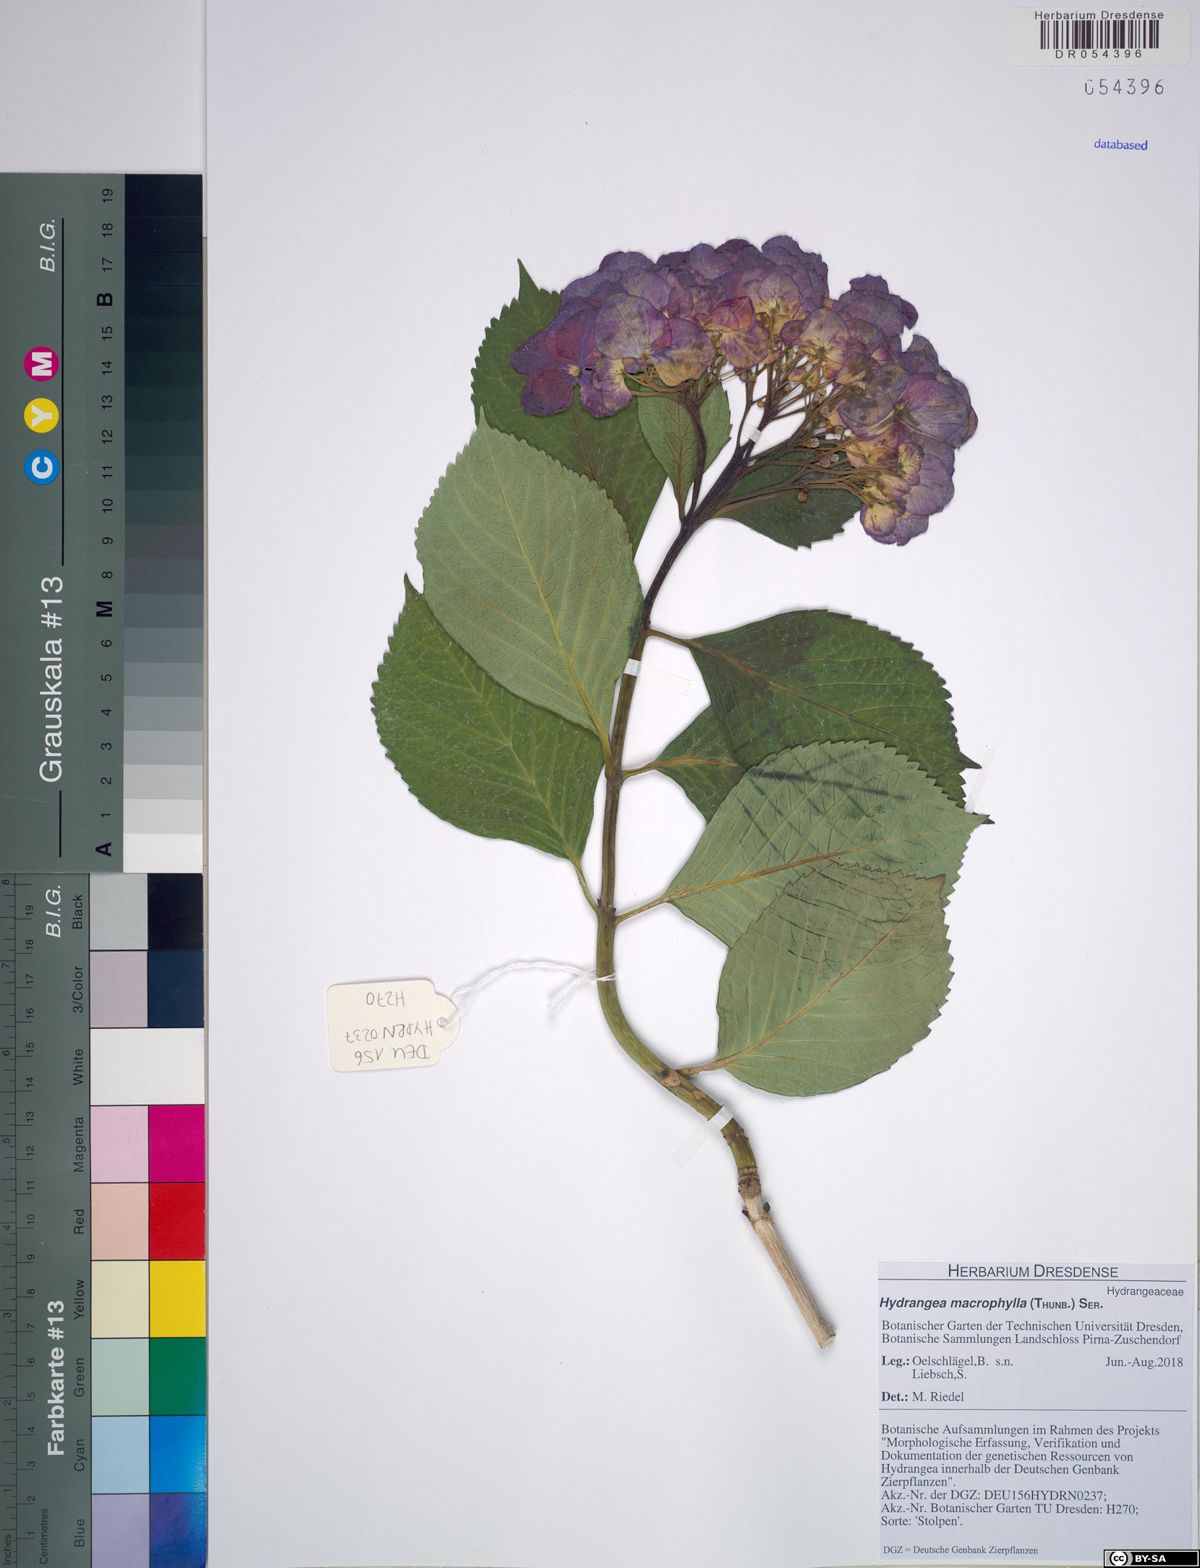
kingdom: Plantae
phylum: Tracheophyta
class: Magnoliopsida
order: Cornales
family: Hydrangeaceae
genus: Hydrangea
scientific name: Hydrangea macrophylla
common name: Hydrangea
